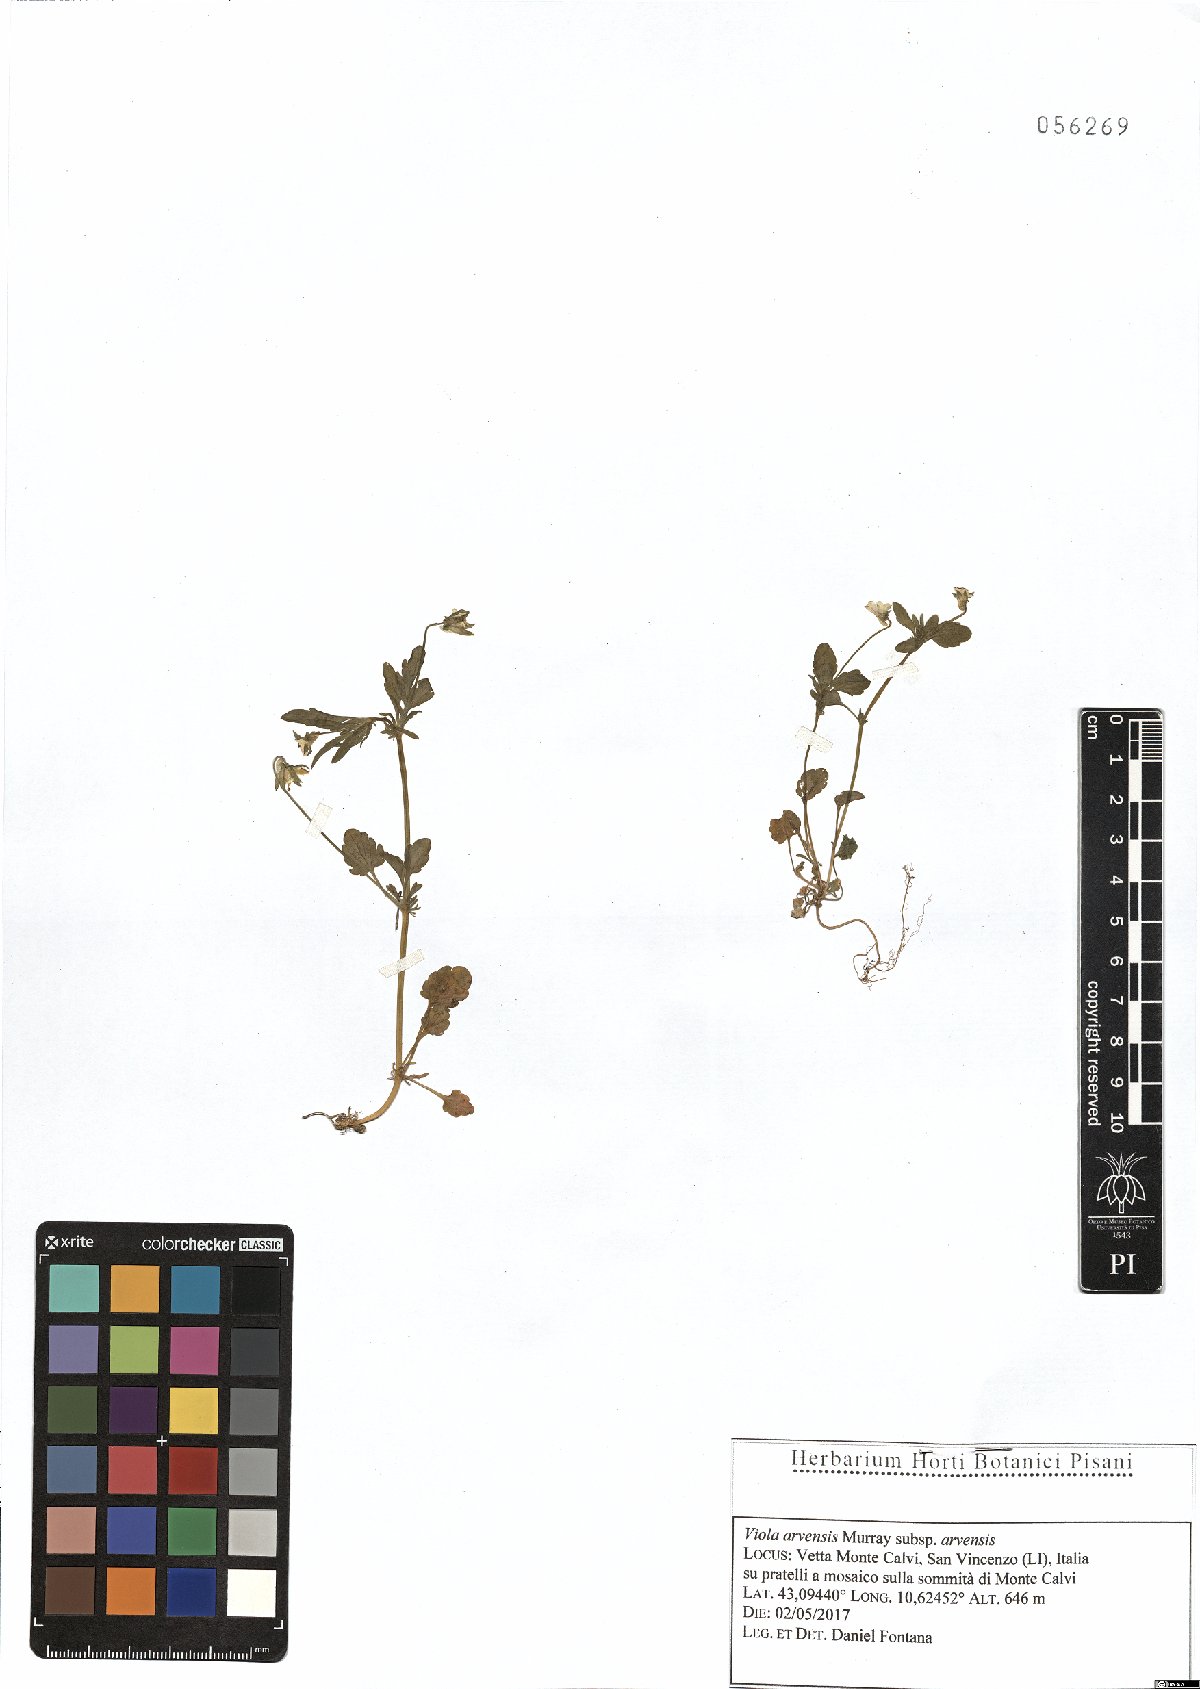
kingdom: Plantae
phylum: Tracheophyta
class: Magnoliopsida
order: Malpighiales
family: Violaceae
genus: Viola
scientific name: Viola arvensis
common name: Field pansy
